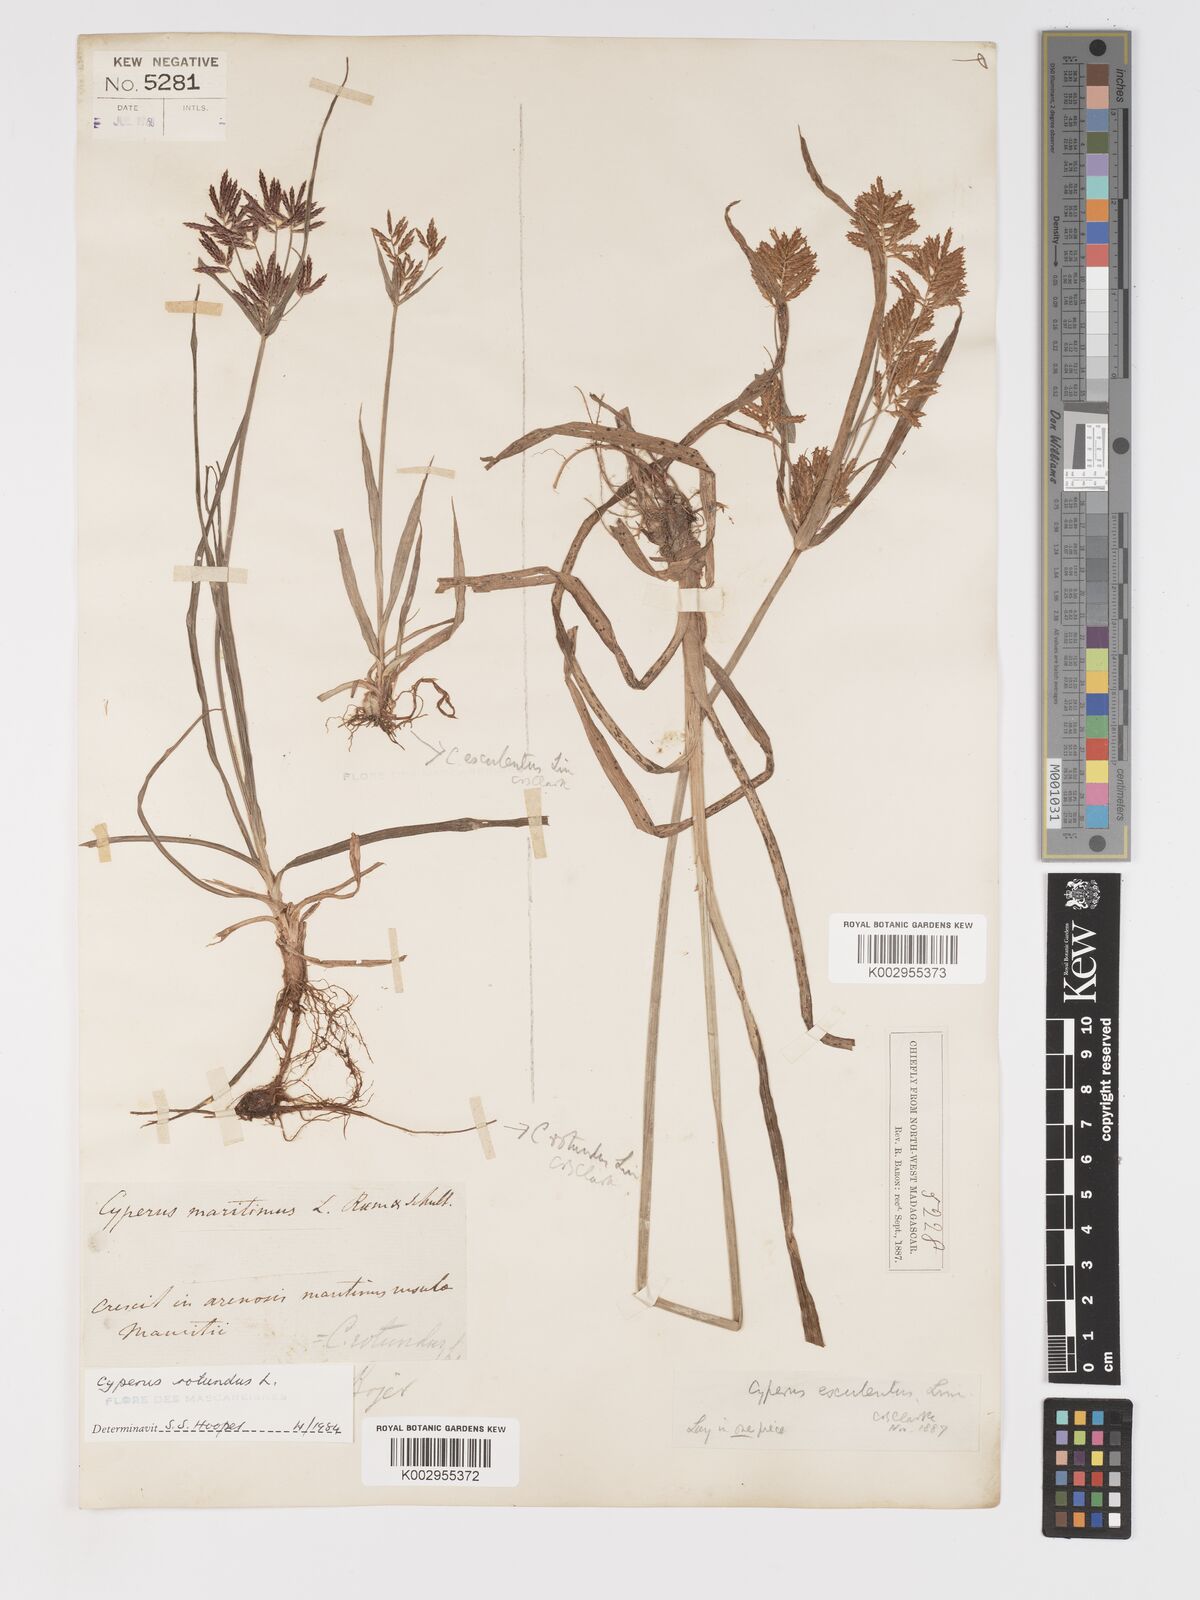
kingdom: Plantae
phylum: Tracheophyta
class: Liliopsida
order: Poales
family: Cyperaceae
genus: Cyperus
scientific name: Cyperus rotundus
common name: Nutgrass
